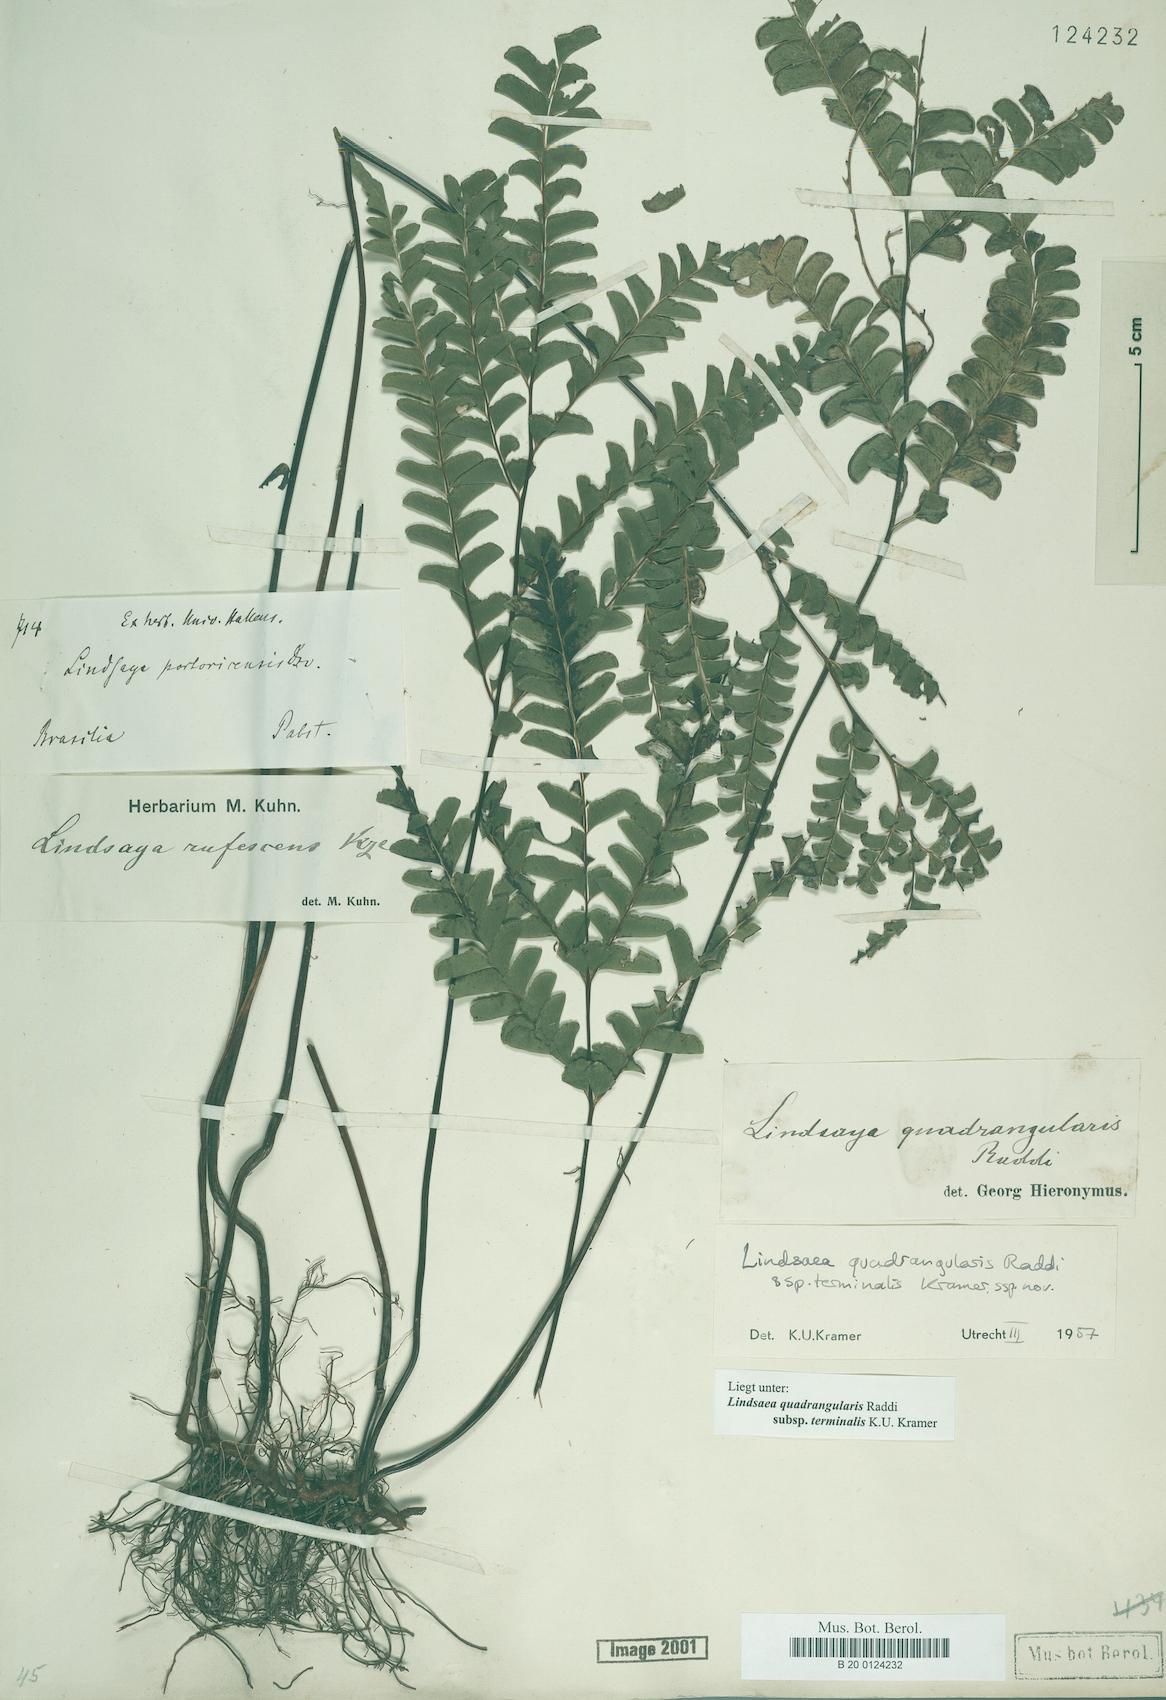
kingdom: Plantae
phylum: Tracheophyta
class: Polypodiopsida
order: Polypodiales
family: Lindsaeaceae
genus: Lindsaea
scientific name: Lindsaea terminalis
